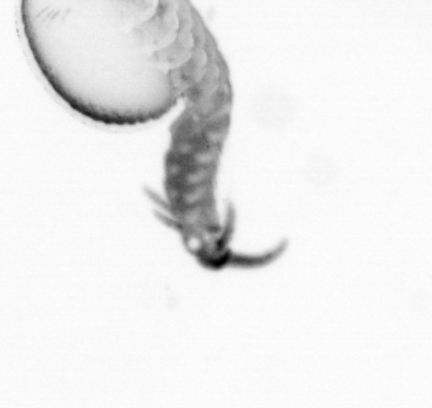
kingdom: Animalia
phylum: Annelida
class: Polychaeta
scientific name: Polychaeta
